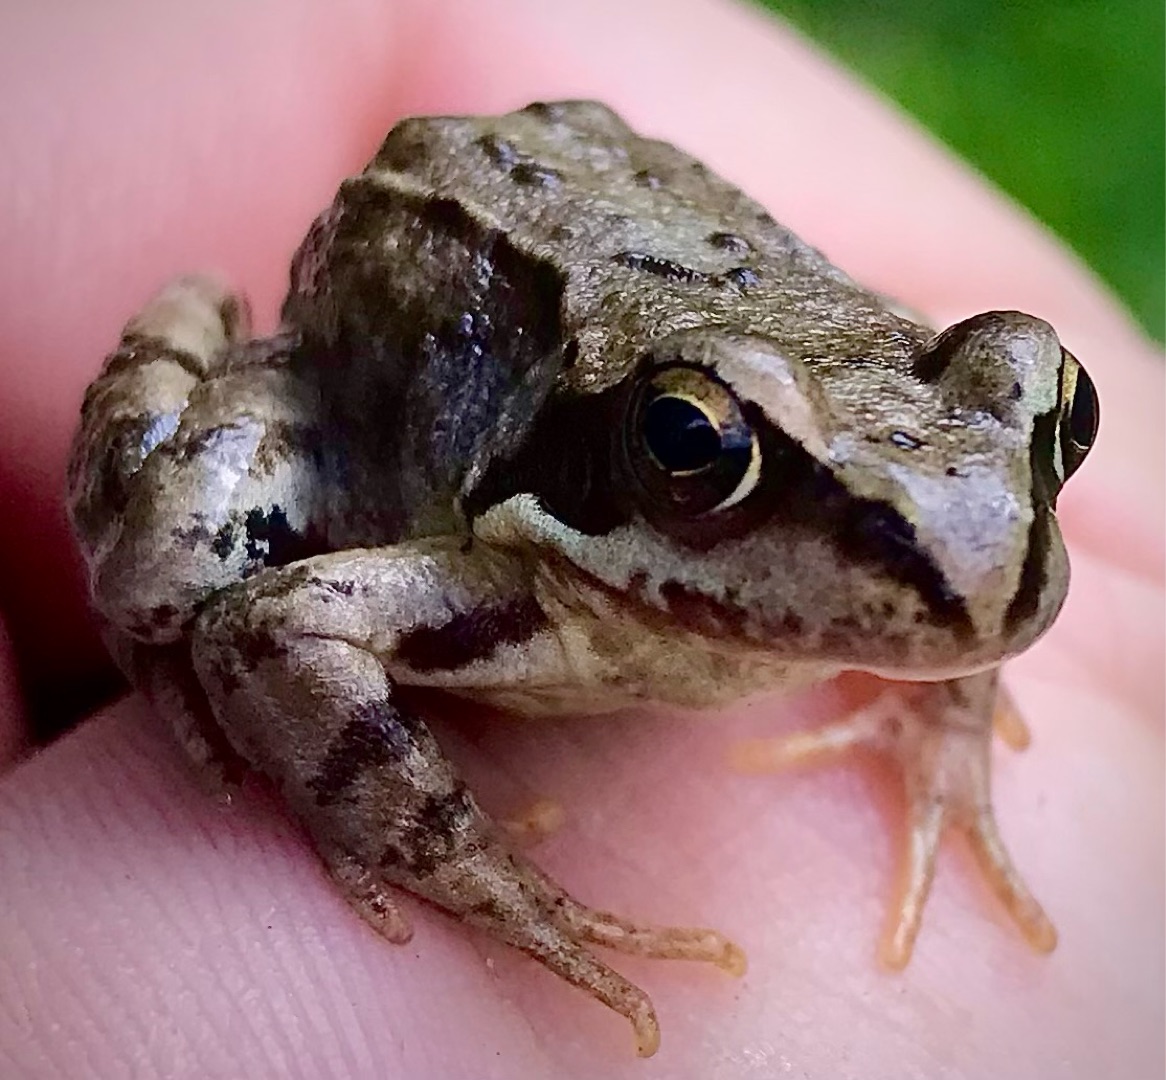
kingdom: Animalia
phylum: Chordata
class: Amphibia
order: Anura
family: Ranidae
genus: Rana
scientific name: Rana temporaria
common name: Butsnudet frø
